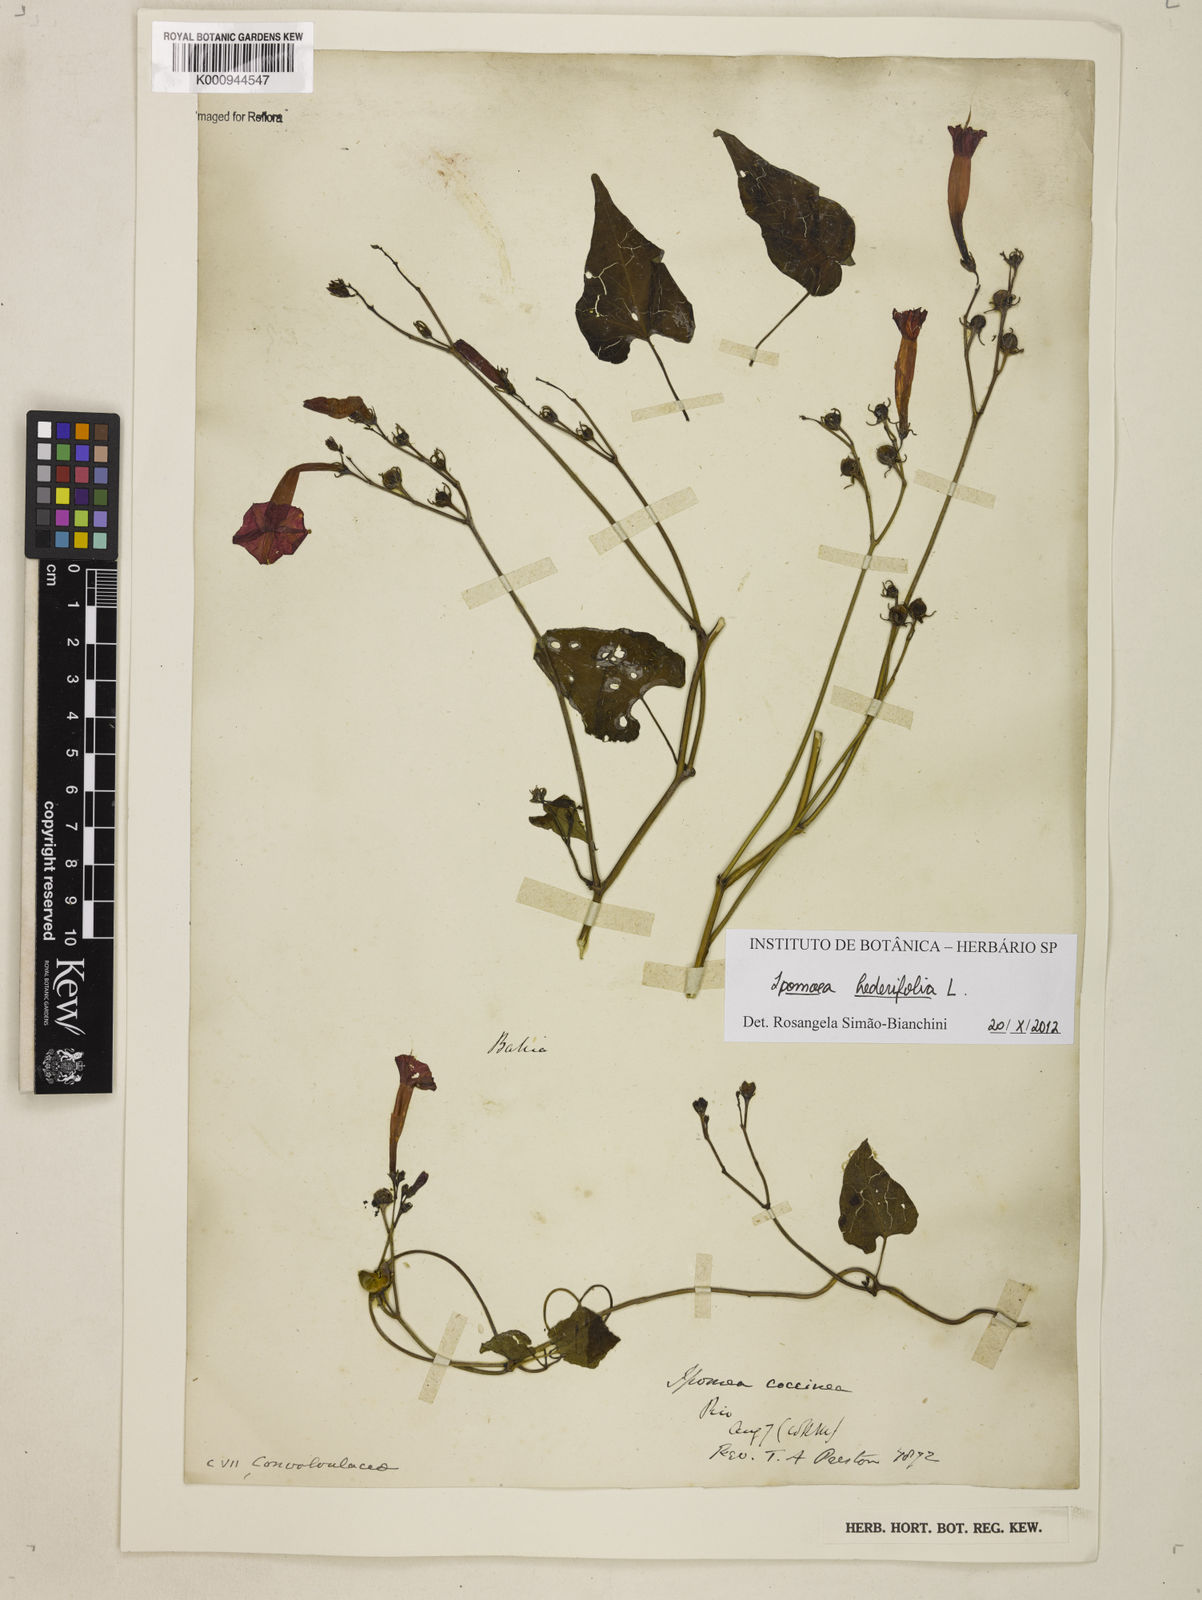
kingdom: Plantae
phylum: Tracheophyta
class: Magnoliopsida
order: Solanales
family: Convolvulaceae
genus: Ipomoea
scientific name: Ipomoea hederifolia
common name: Ivy-leaf morning-glory
